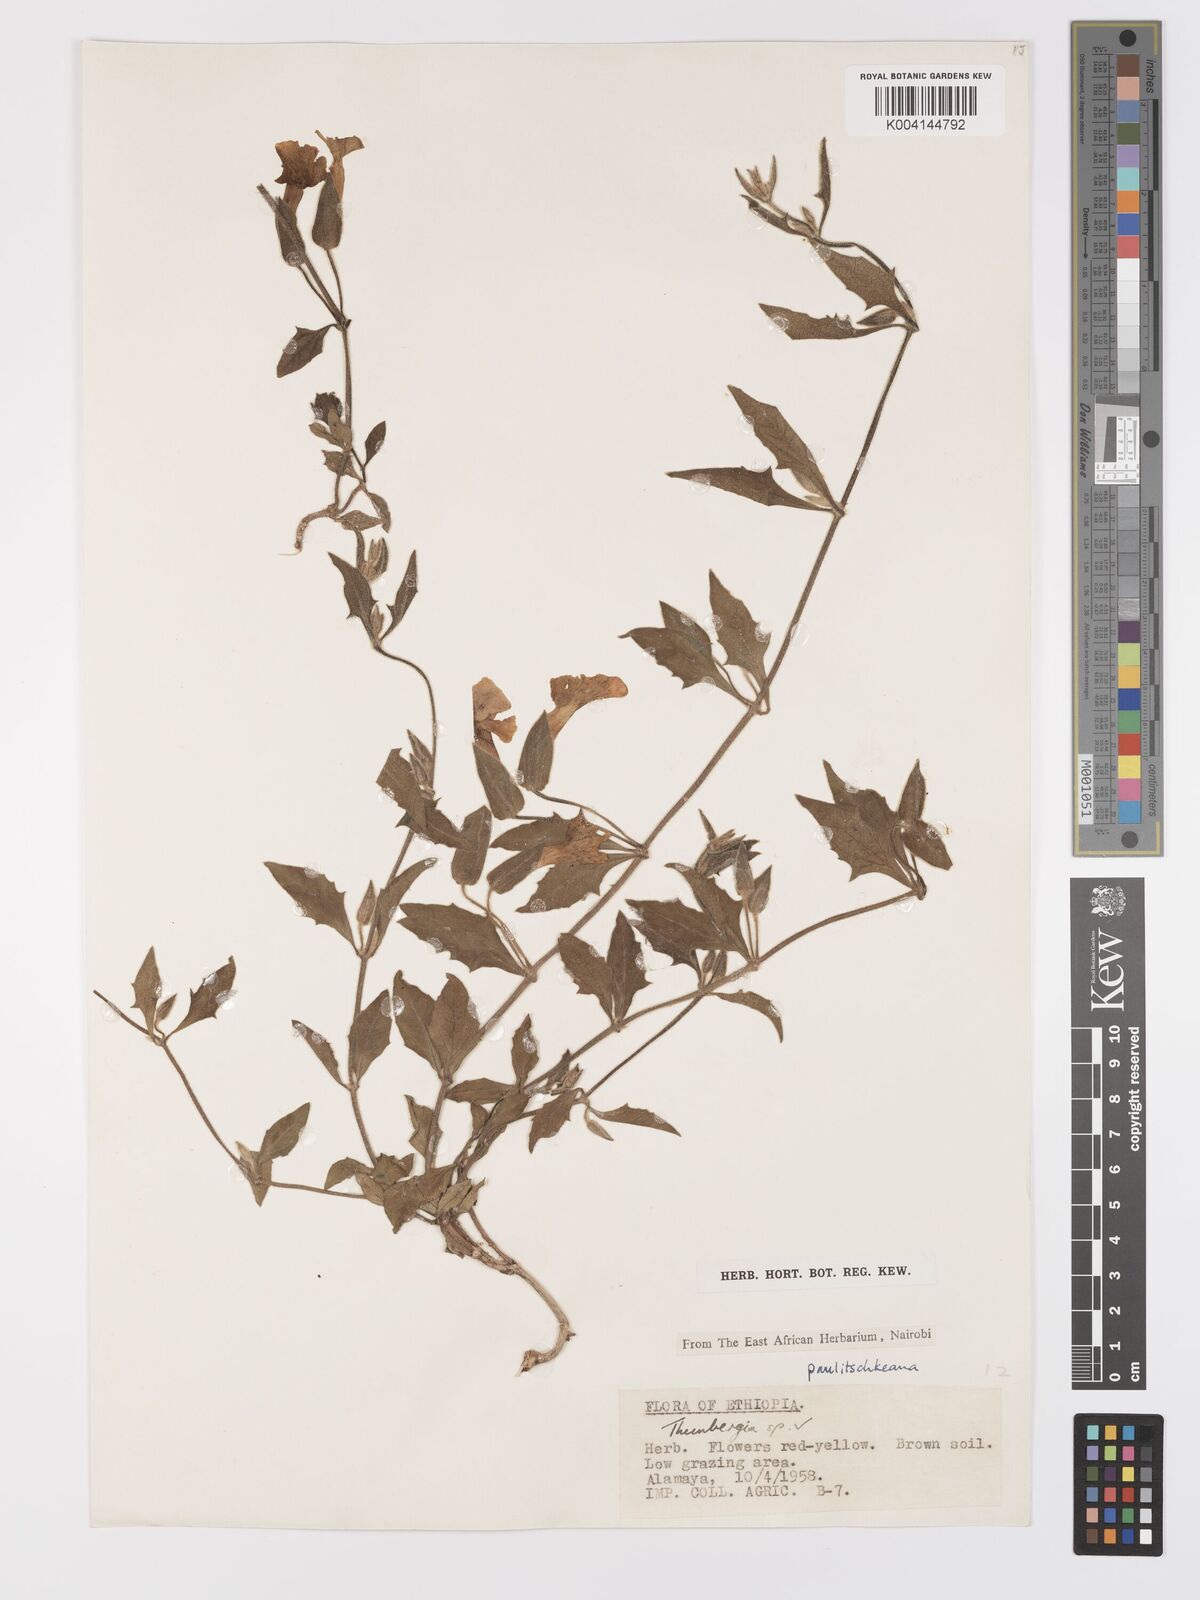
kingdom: Plantae
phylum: Tracheophyta
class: Magnoliopsida
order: Lamiales
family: Acanthaceae
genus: Thunbergia
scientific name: Thunbergia paulitschkeana
